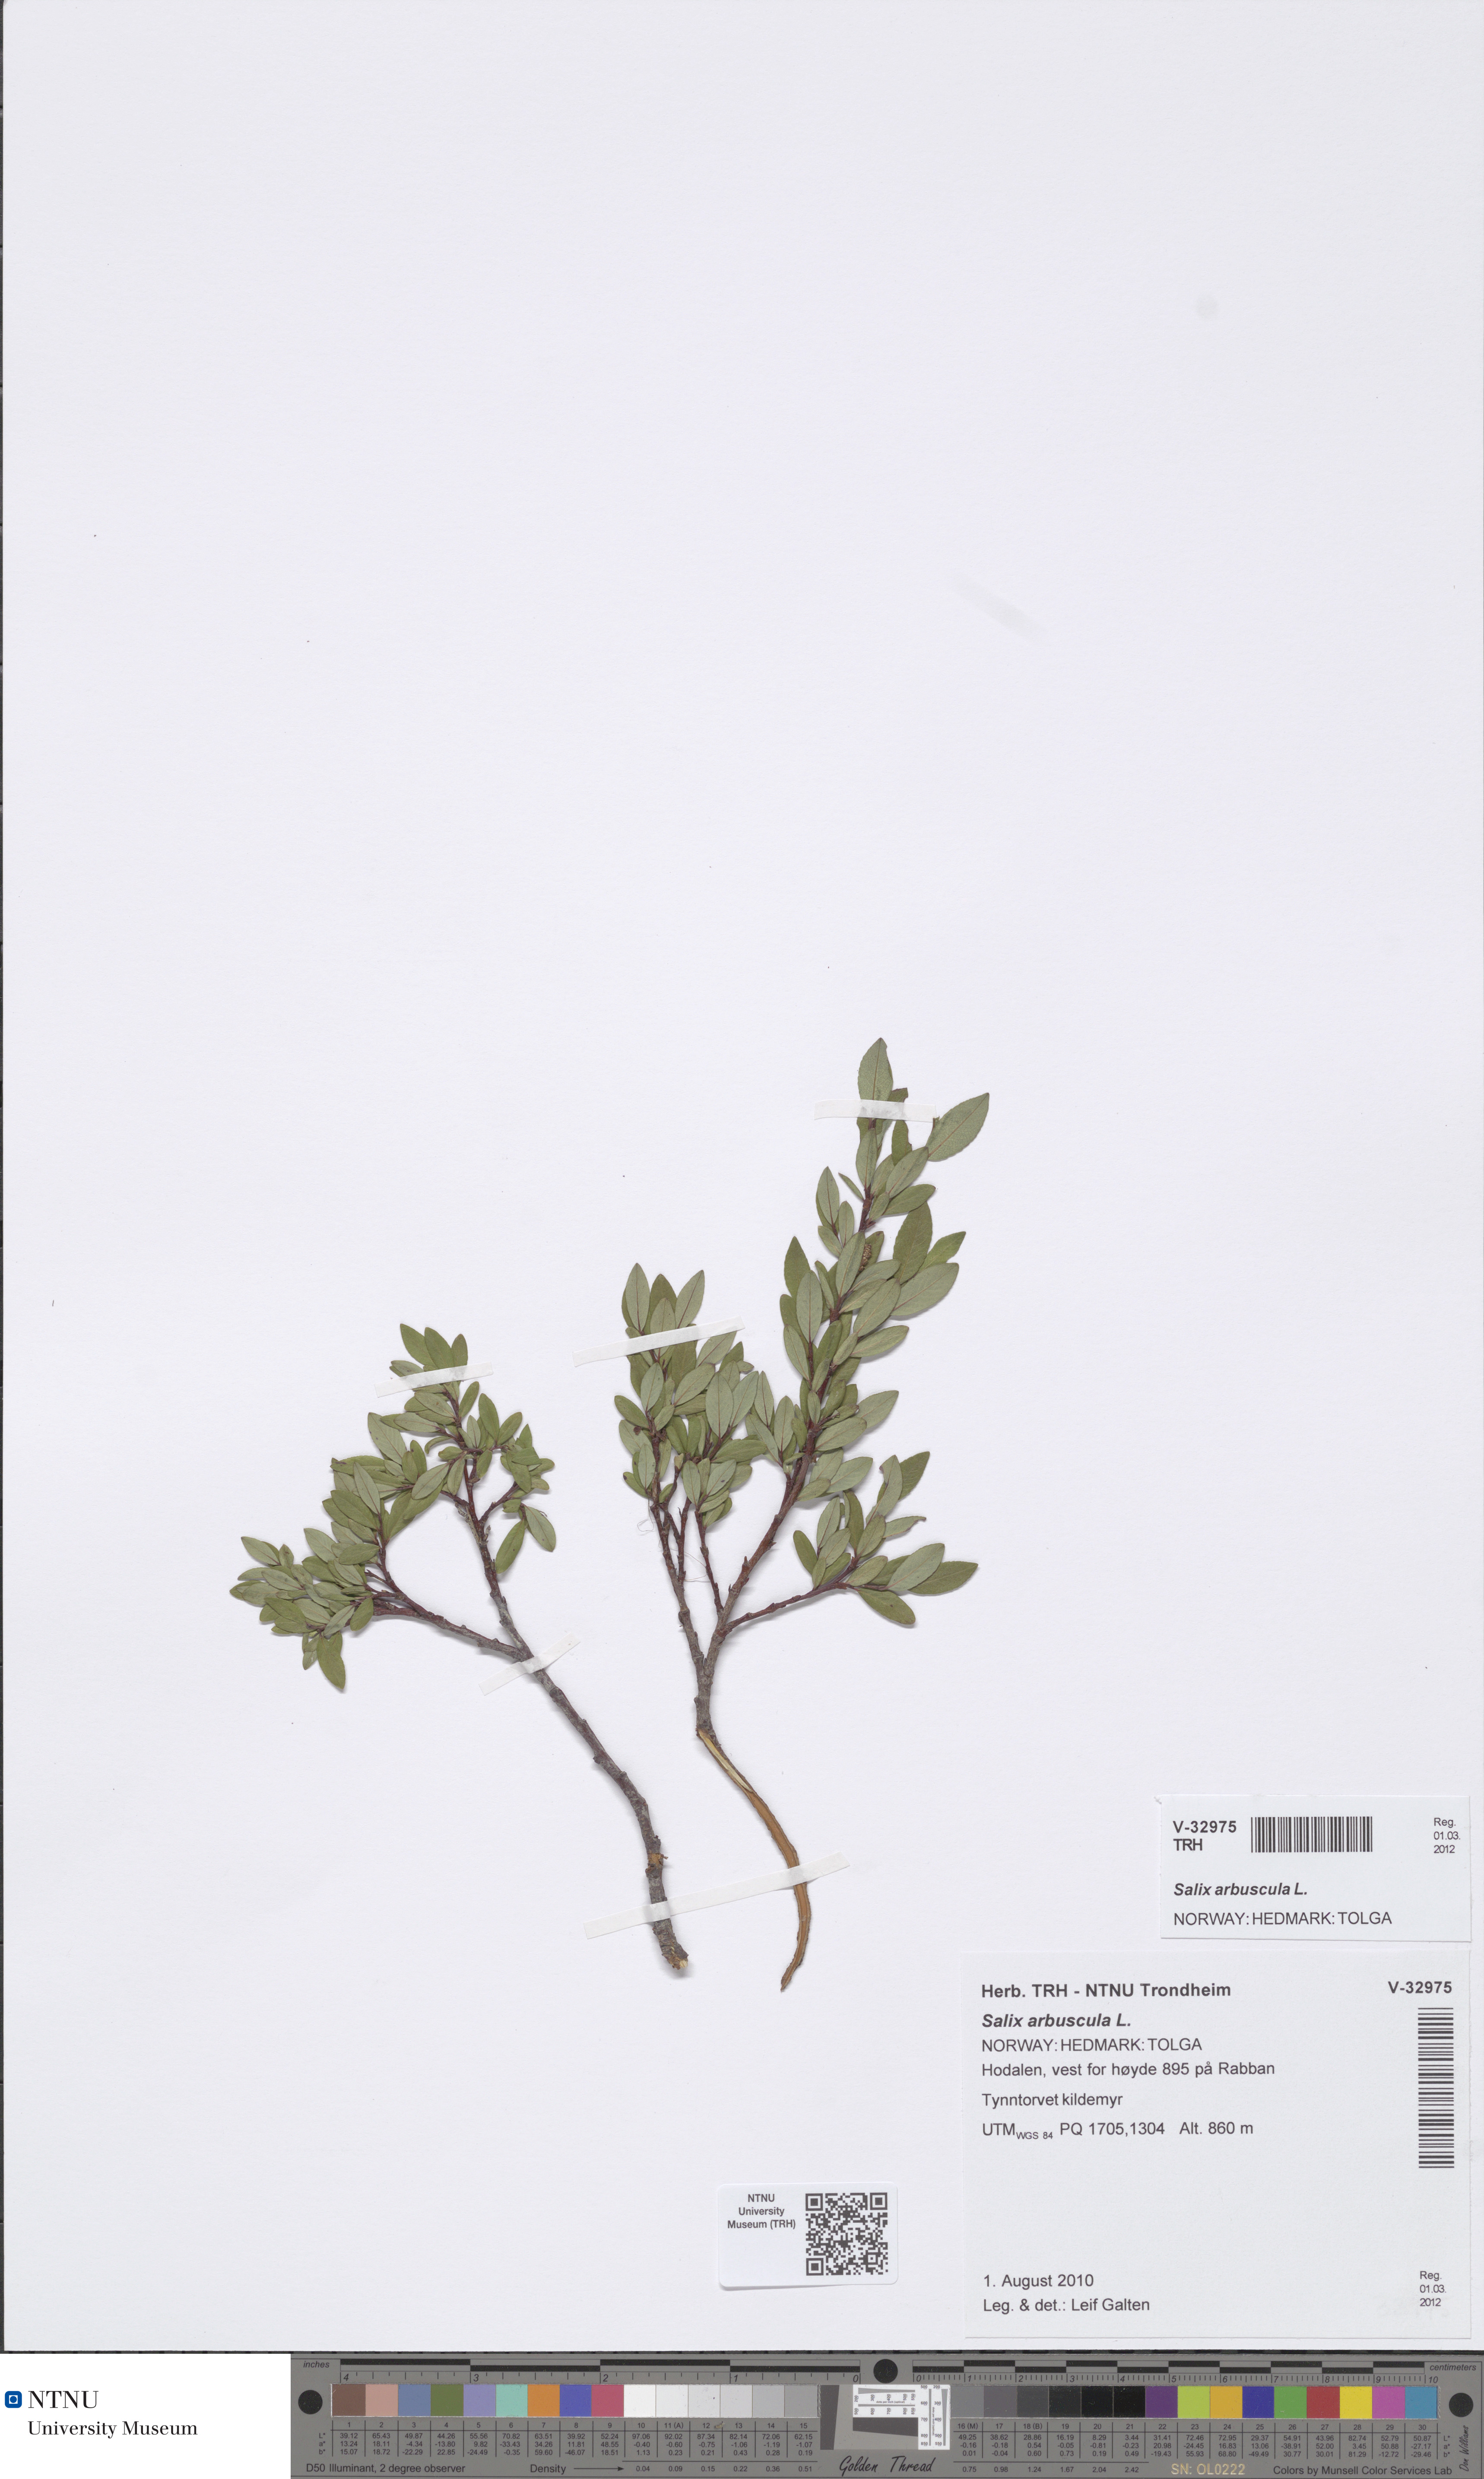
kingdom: Plantae
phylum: Tracheophyta
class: Magnoliopsida
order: Malpighiales
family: Salicaceae
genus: Salix
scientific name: Salix arbuscula
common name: Mountain willow
